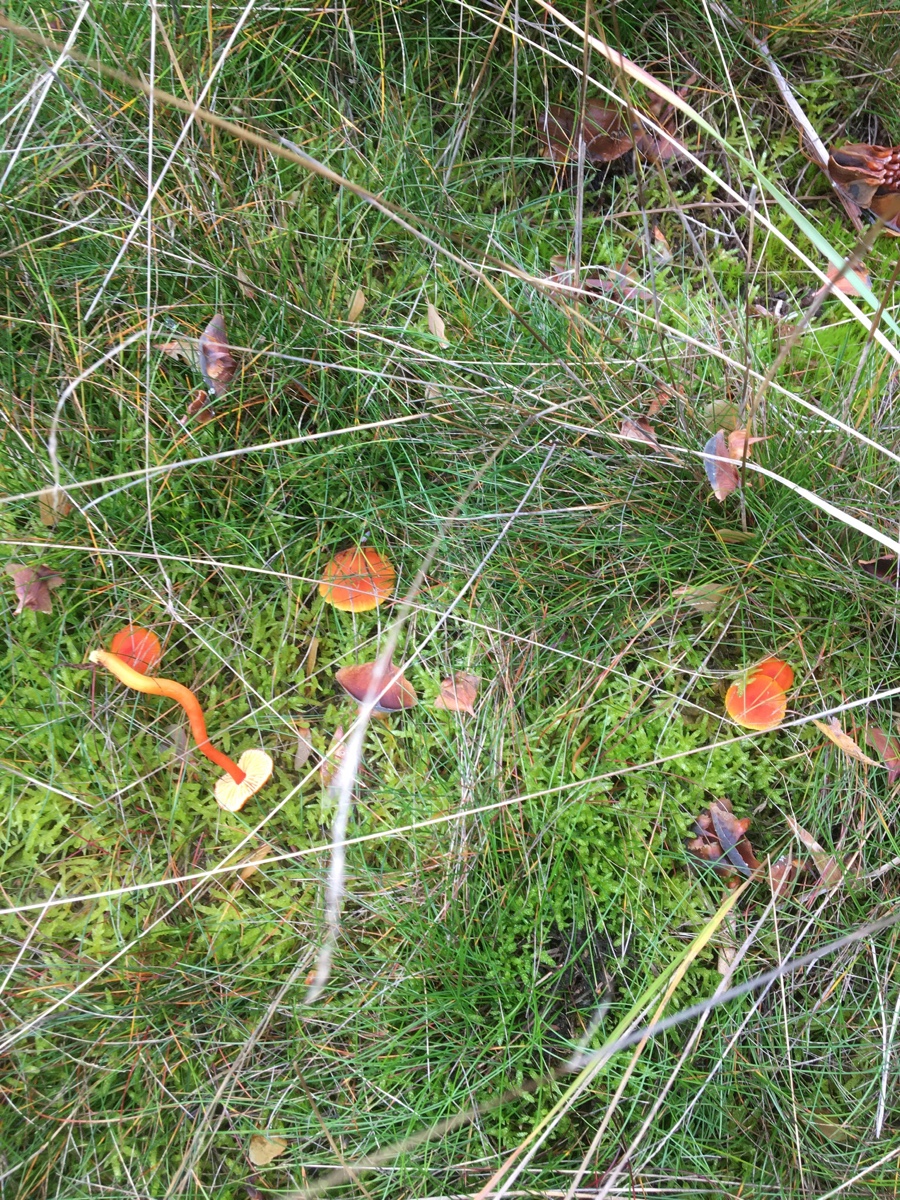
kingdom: Fungi
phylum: Basidiomycota
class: Agaricomycetes
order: Agaricales
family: Hygrophoraceae
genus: Hygrocybe
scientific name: Hygrocybe miniata
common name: mønje-vokshat
